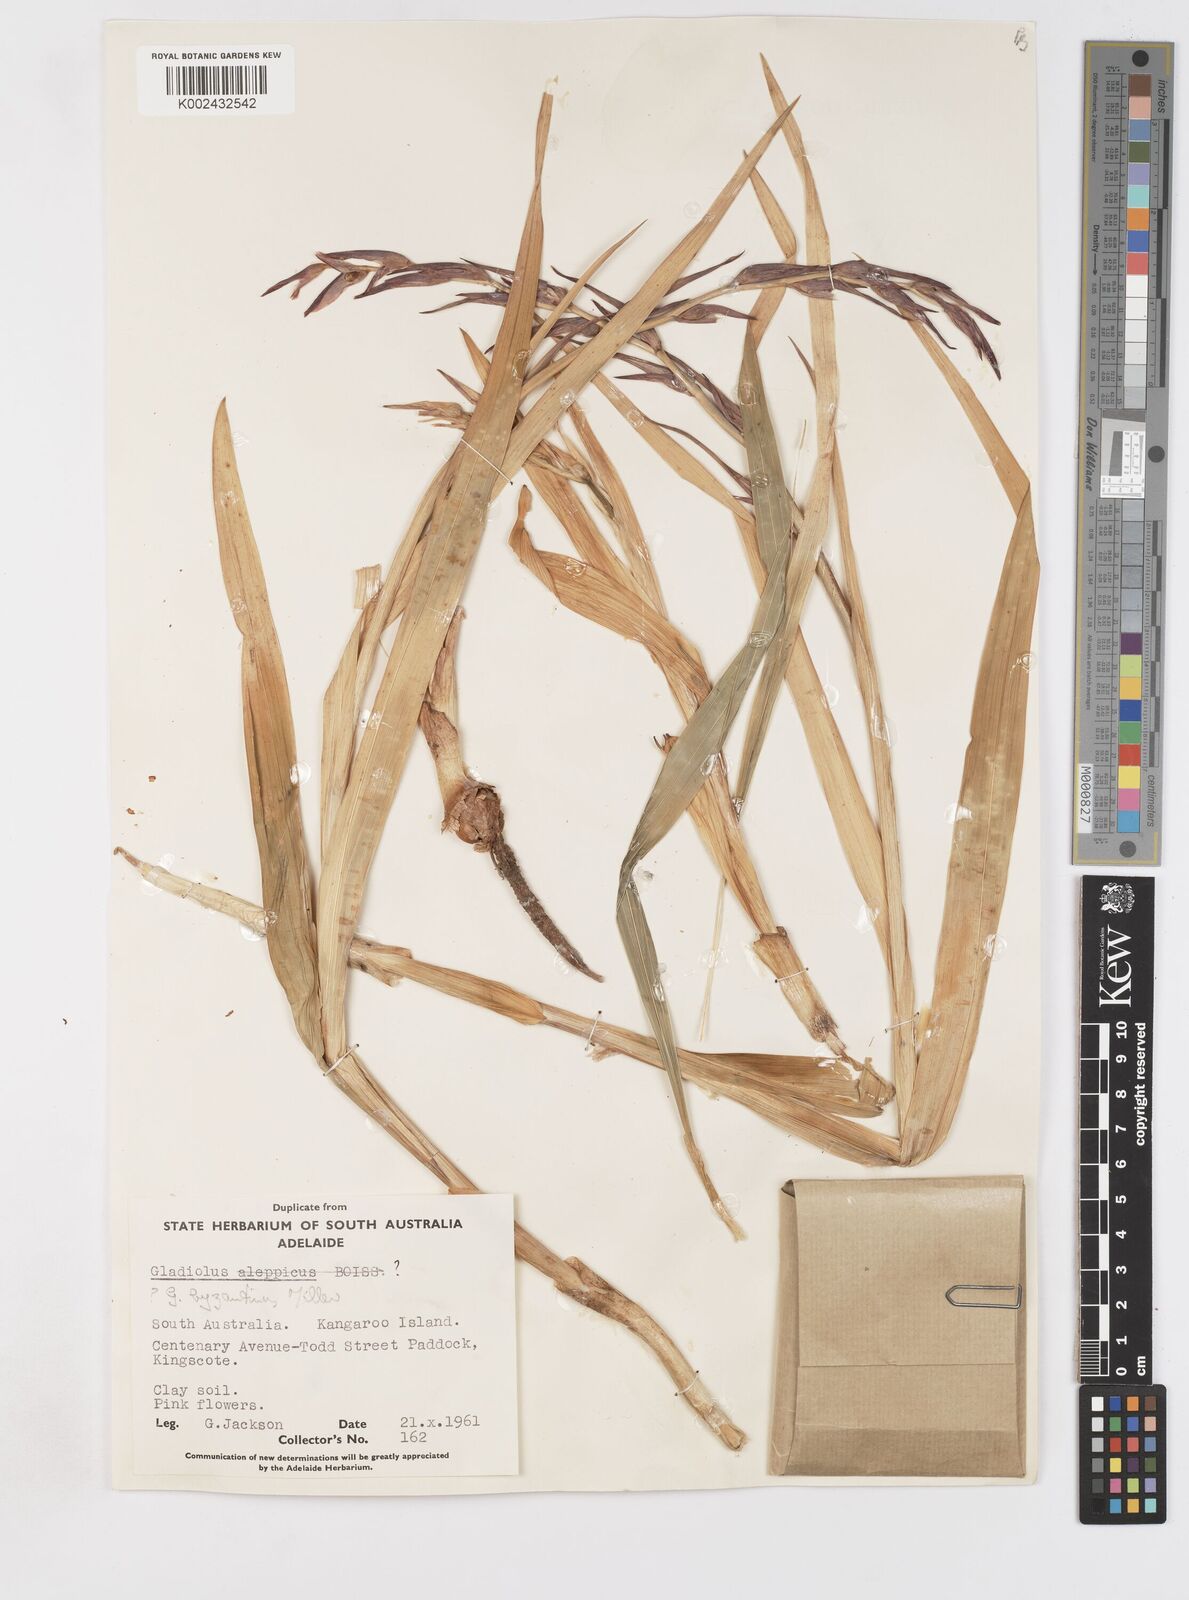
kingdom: Plantae
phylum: Tracheophyta
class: Liliopsida
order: Asparagales
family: Iridaceae
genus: Gladiolus
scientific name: Gladiolus byzantinus
